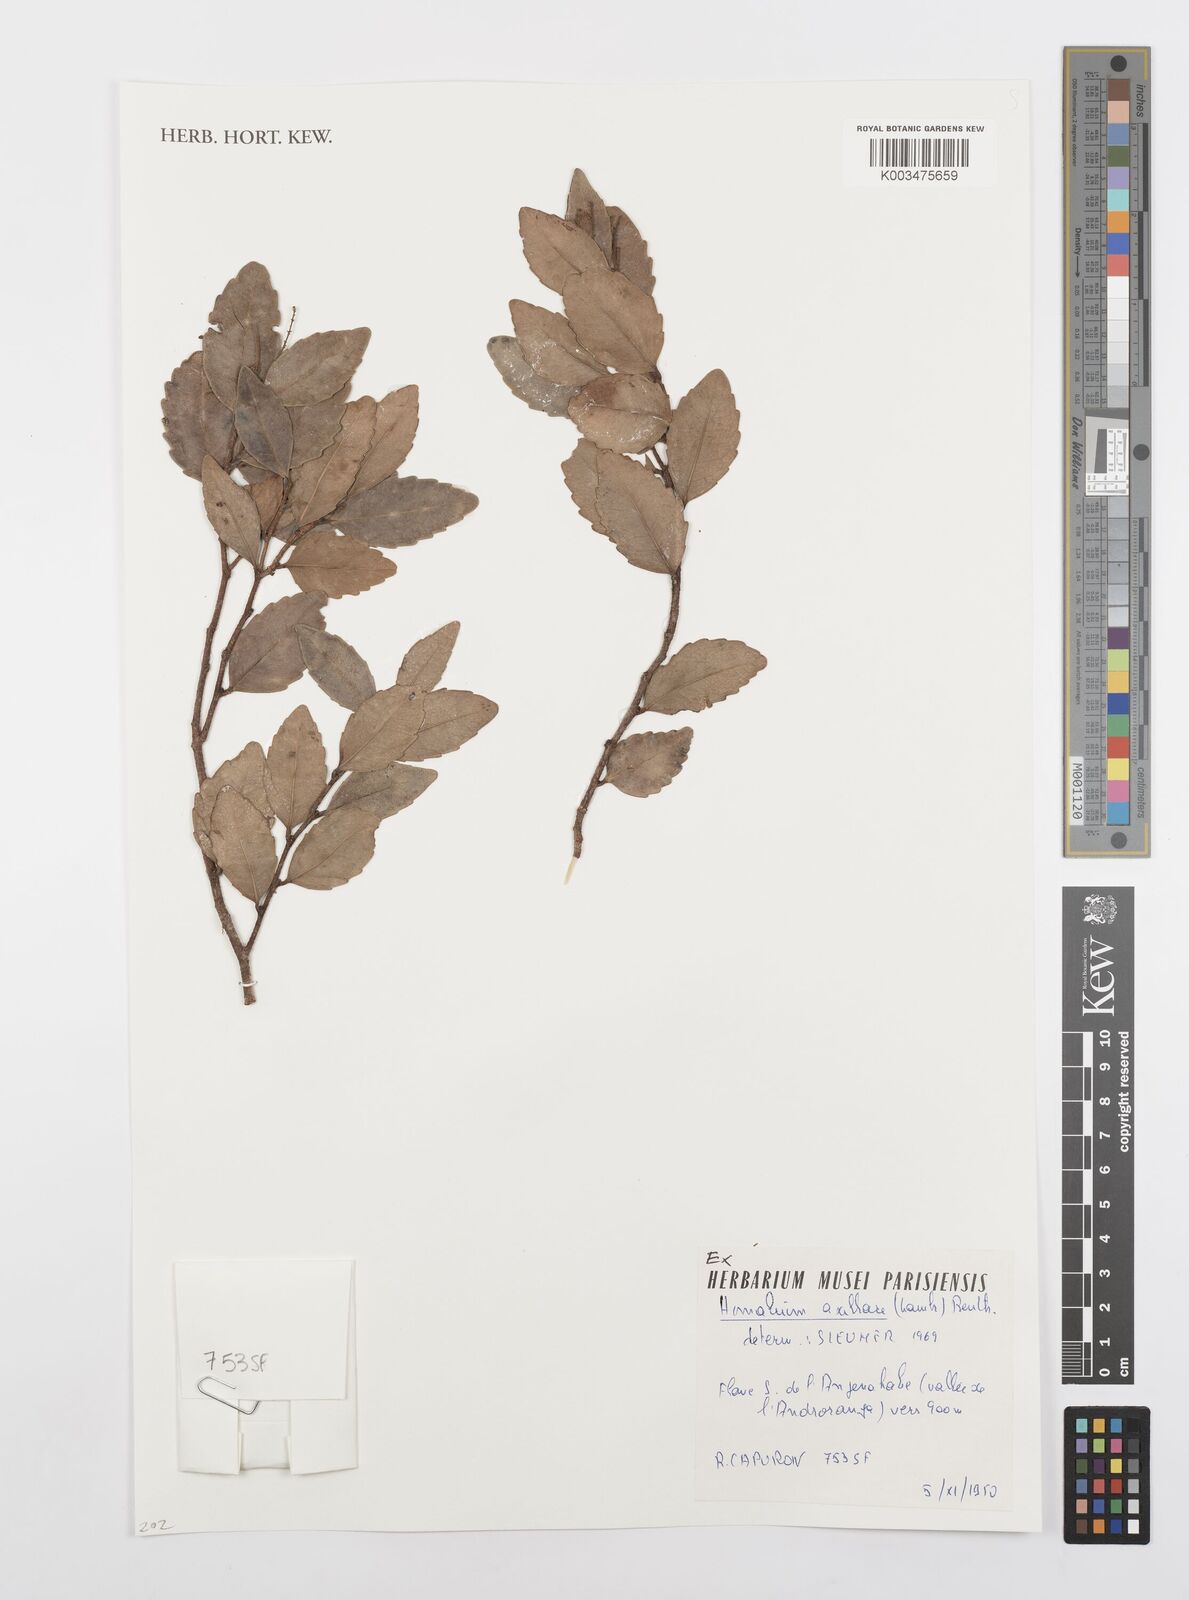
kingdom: Plantae
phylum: Tracheophyta
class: Magnoliopsida
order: Malpighiales
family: Salicaceae
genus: Homalium
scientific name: Homalium axillare
